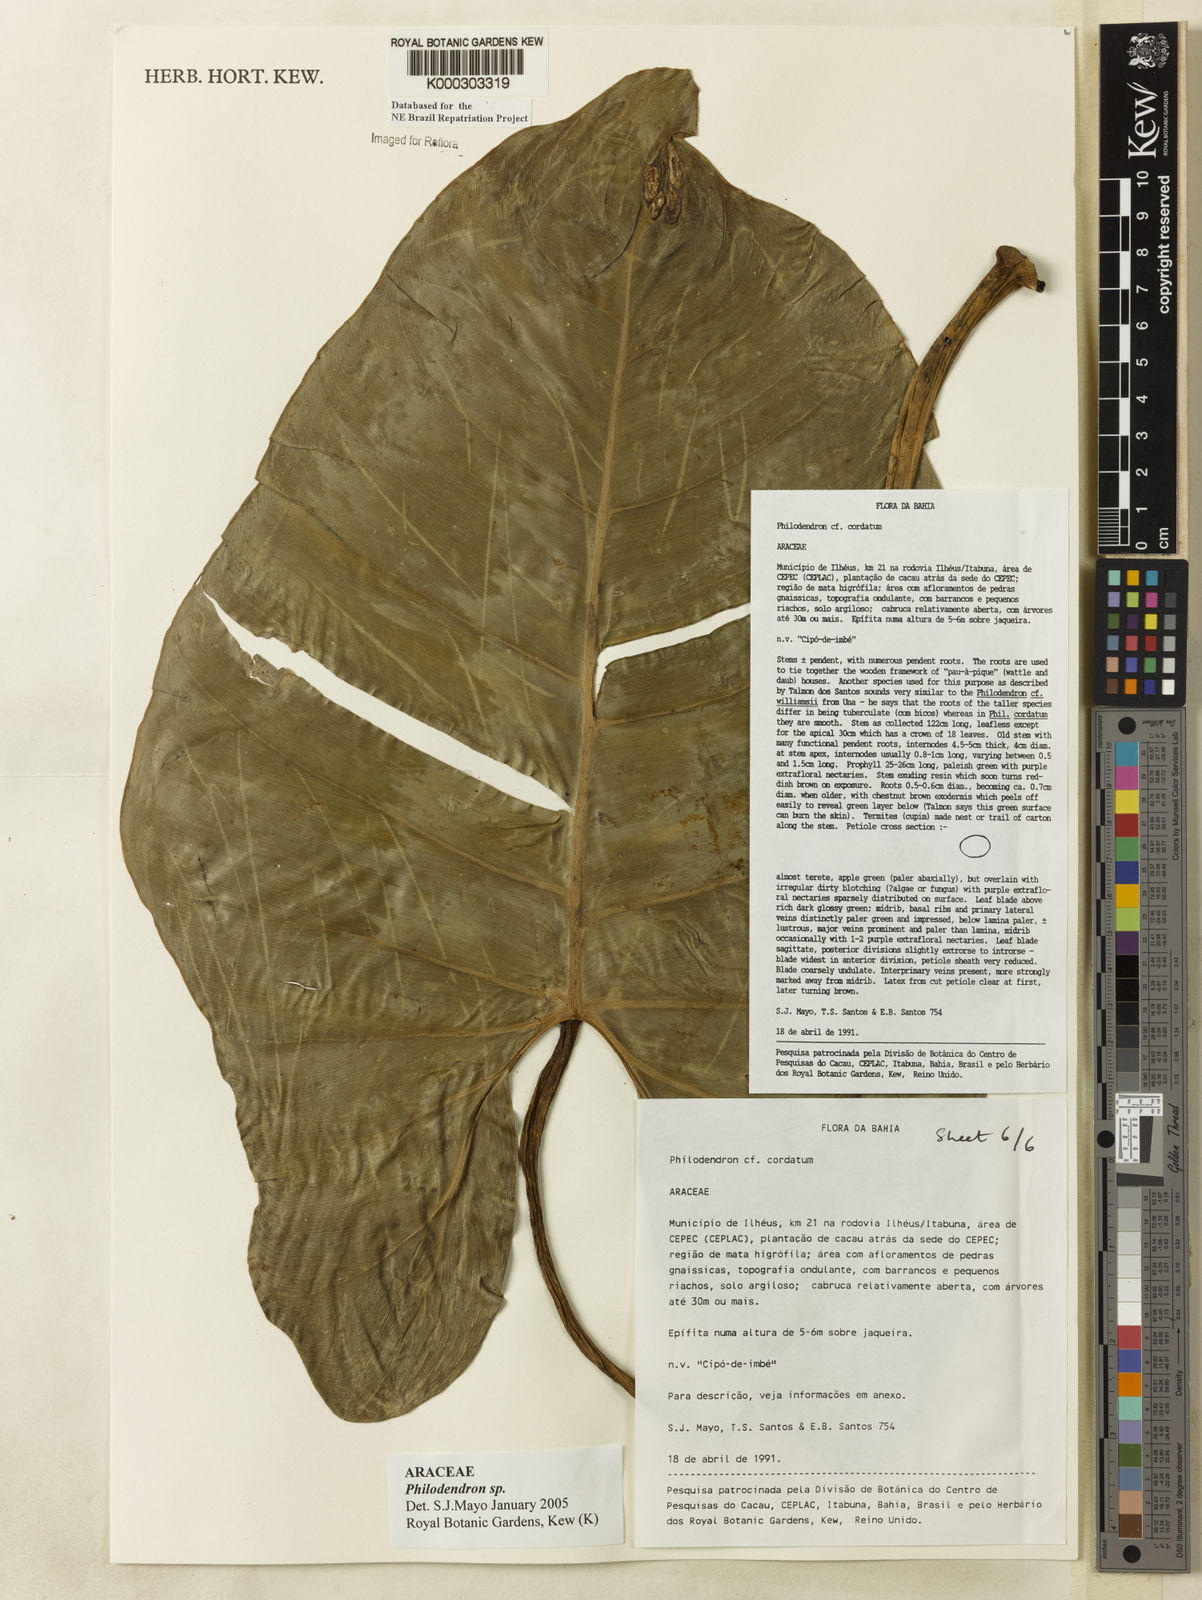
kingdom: Plantae
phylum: Tracheophyta
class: Liliopsida
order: Alismatales
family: Araceae
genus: Philodendron
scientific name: Philodendron
